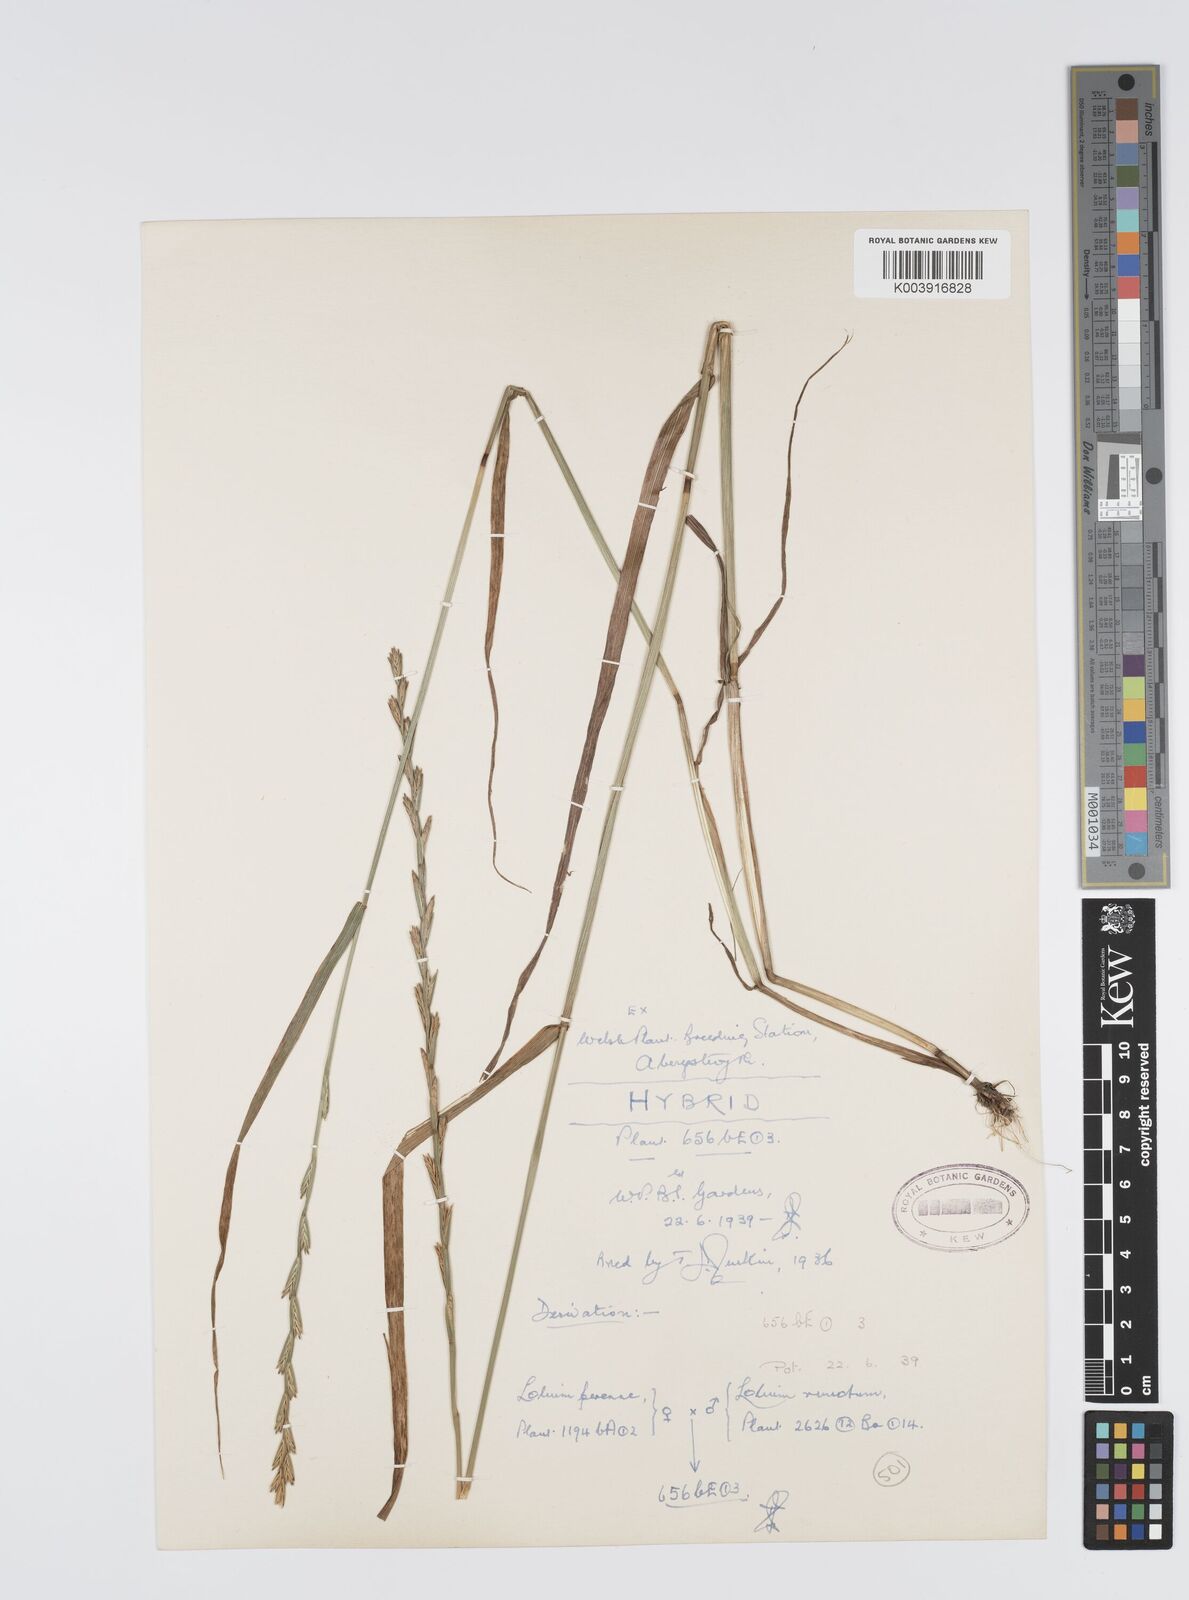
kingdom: Plantae
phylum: Tracheophyta
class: Liliopsida
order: Poales
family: Poaceae
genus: Lolium
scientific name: Lolium perenne
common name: Perennial ryegrass
